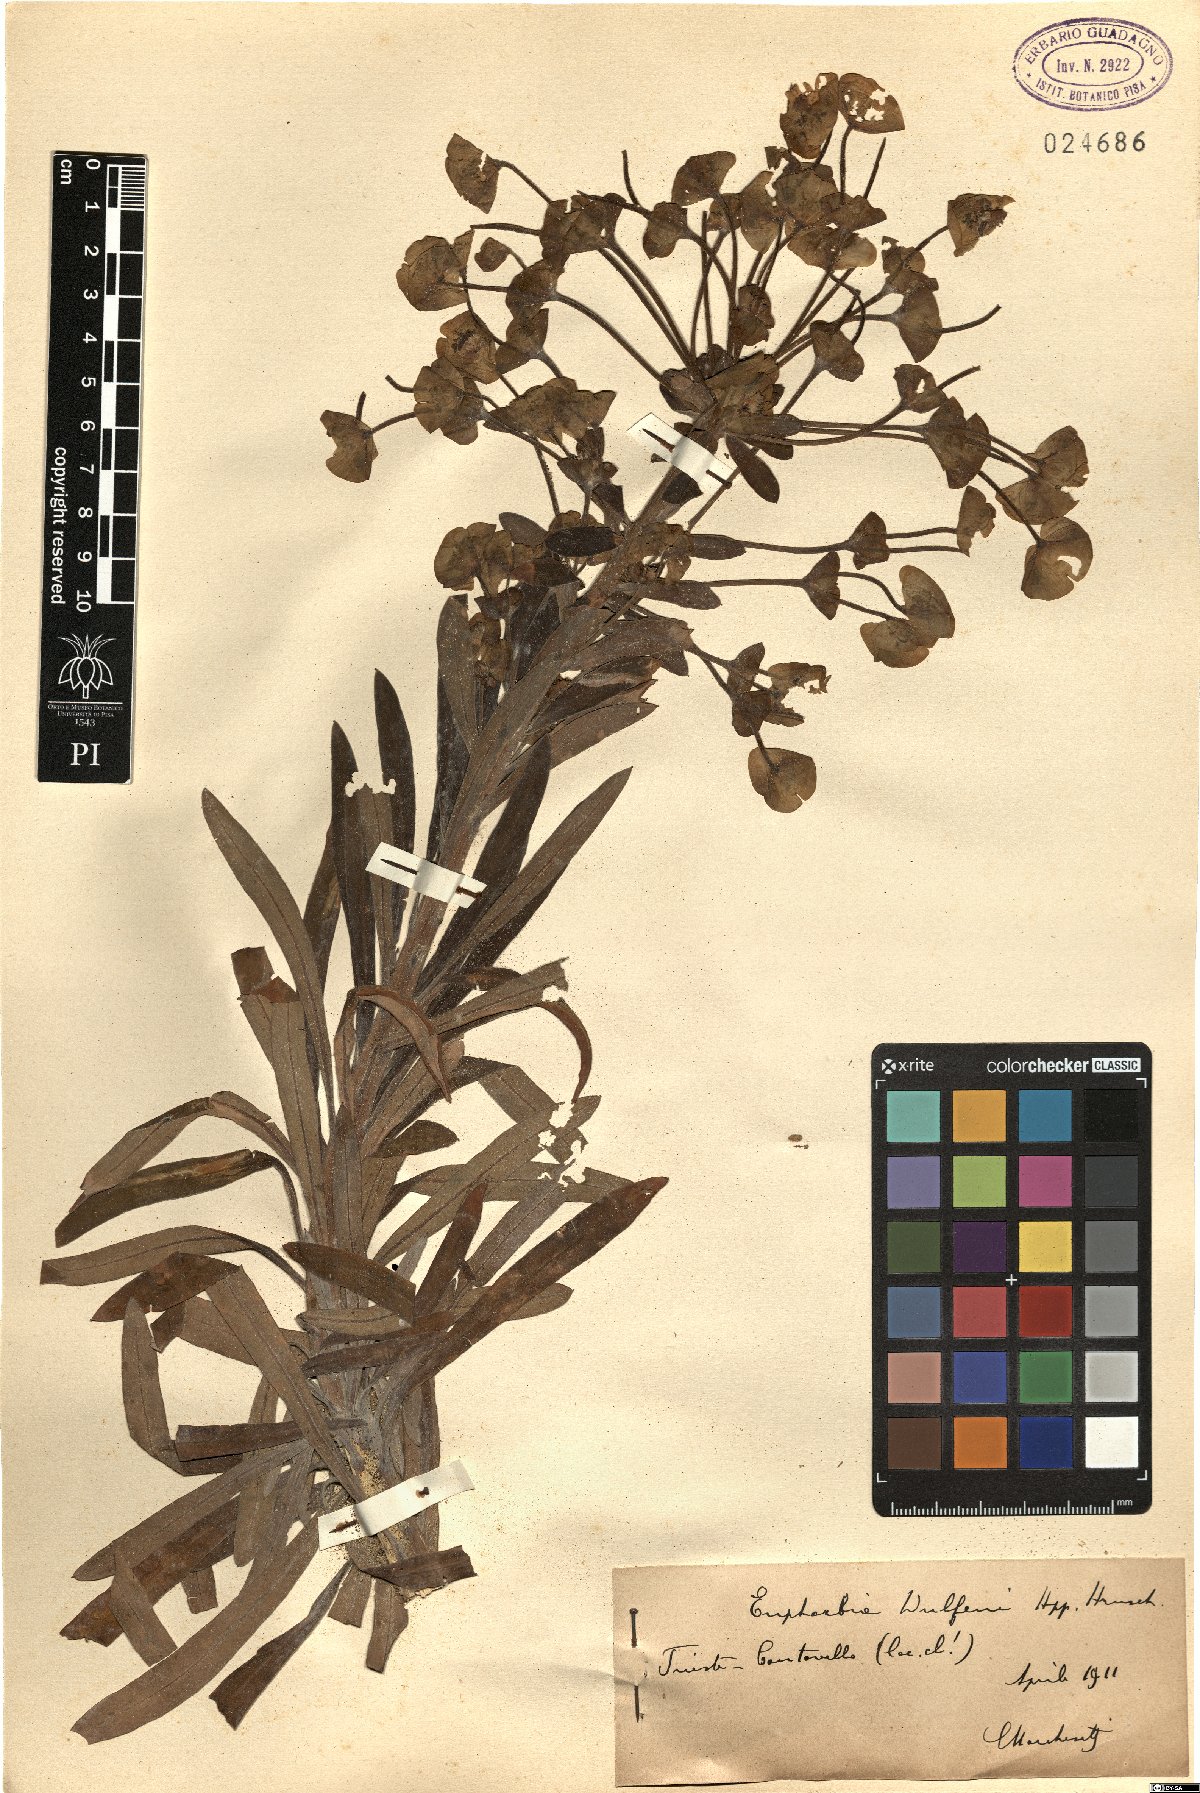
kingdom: Plantae
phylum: Tracheophyta
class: Magnoliopsida
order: Malpighiales
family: Euphorbiaceae
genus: Euphorbia
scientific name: Euphorbia characias
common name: Mediterranean spurge
